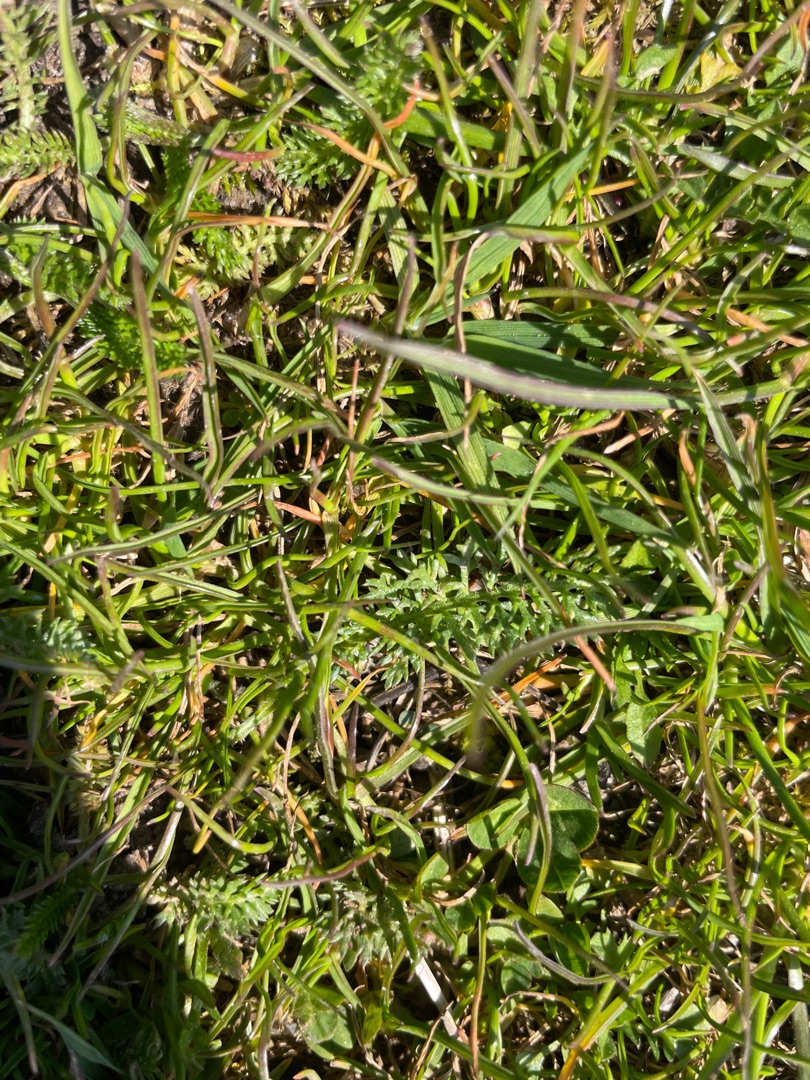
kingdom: Plantae
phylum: Tracheophyta
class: Magnoliopsida
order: Lamiales
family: Plantaginaceae
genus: Plantago
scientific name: Plantago maritima
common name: Strand-vejbred
